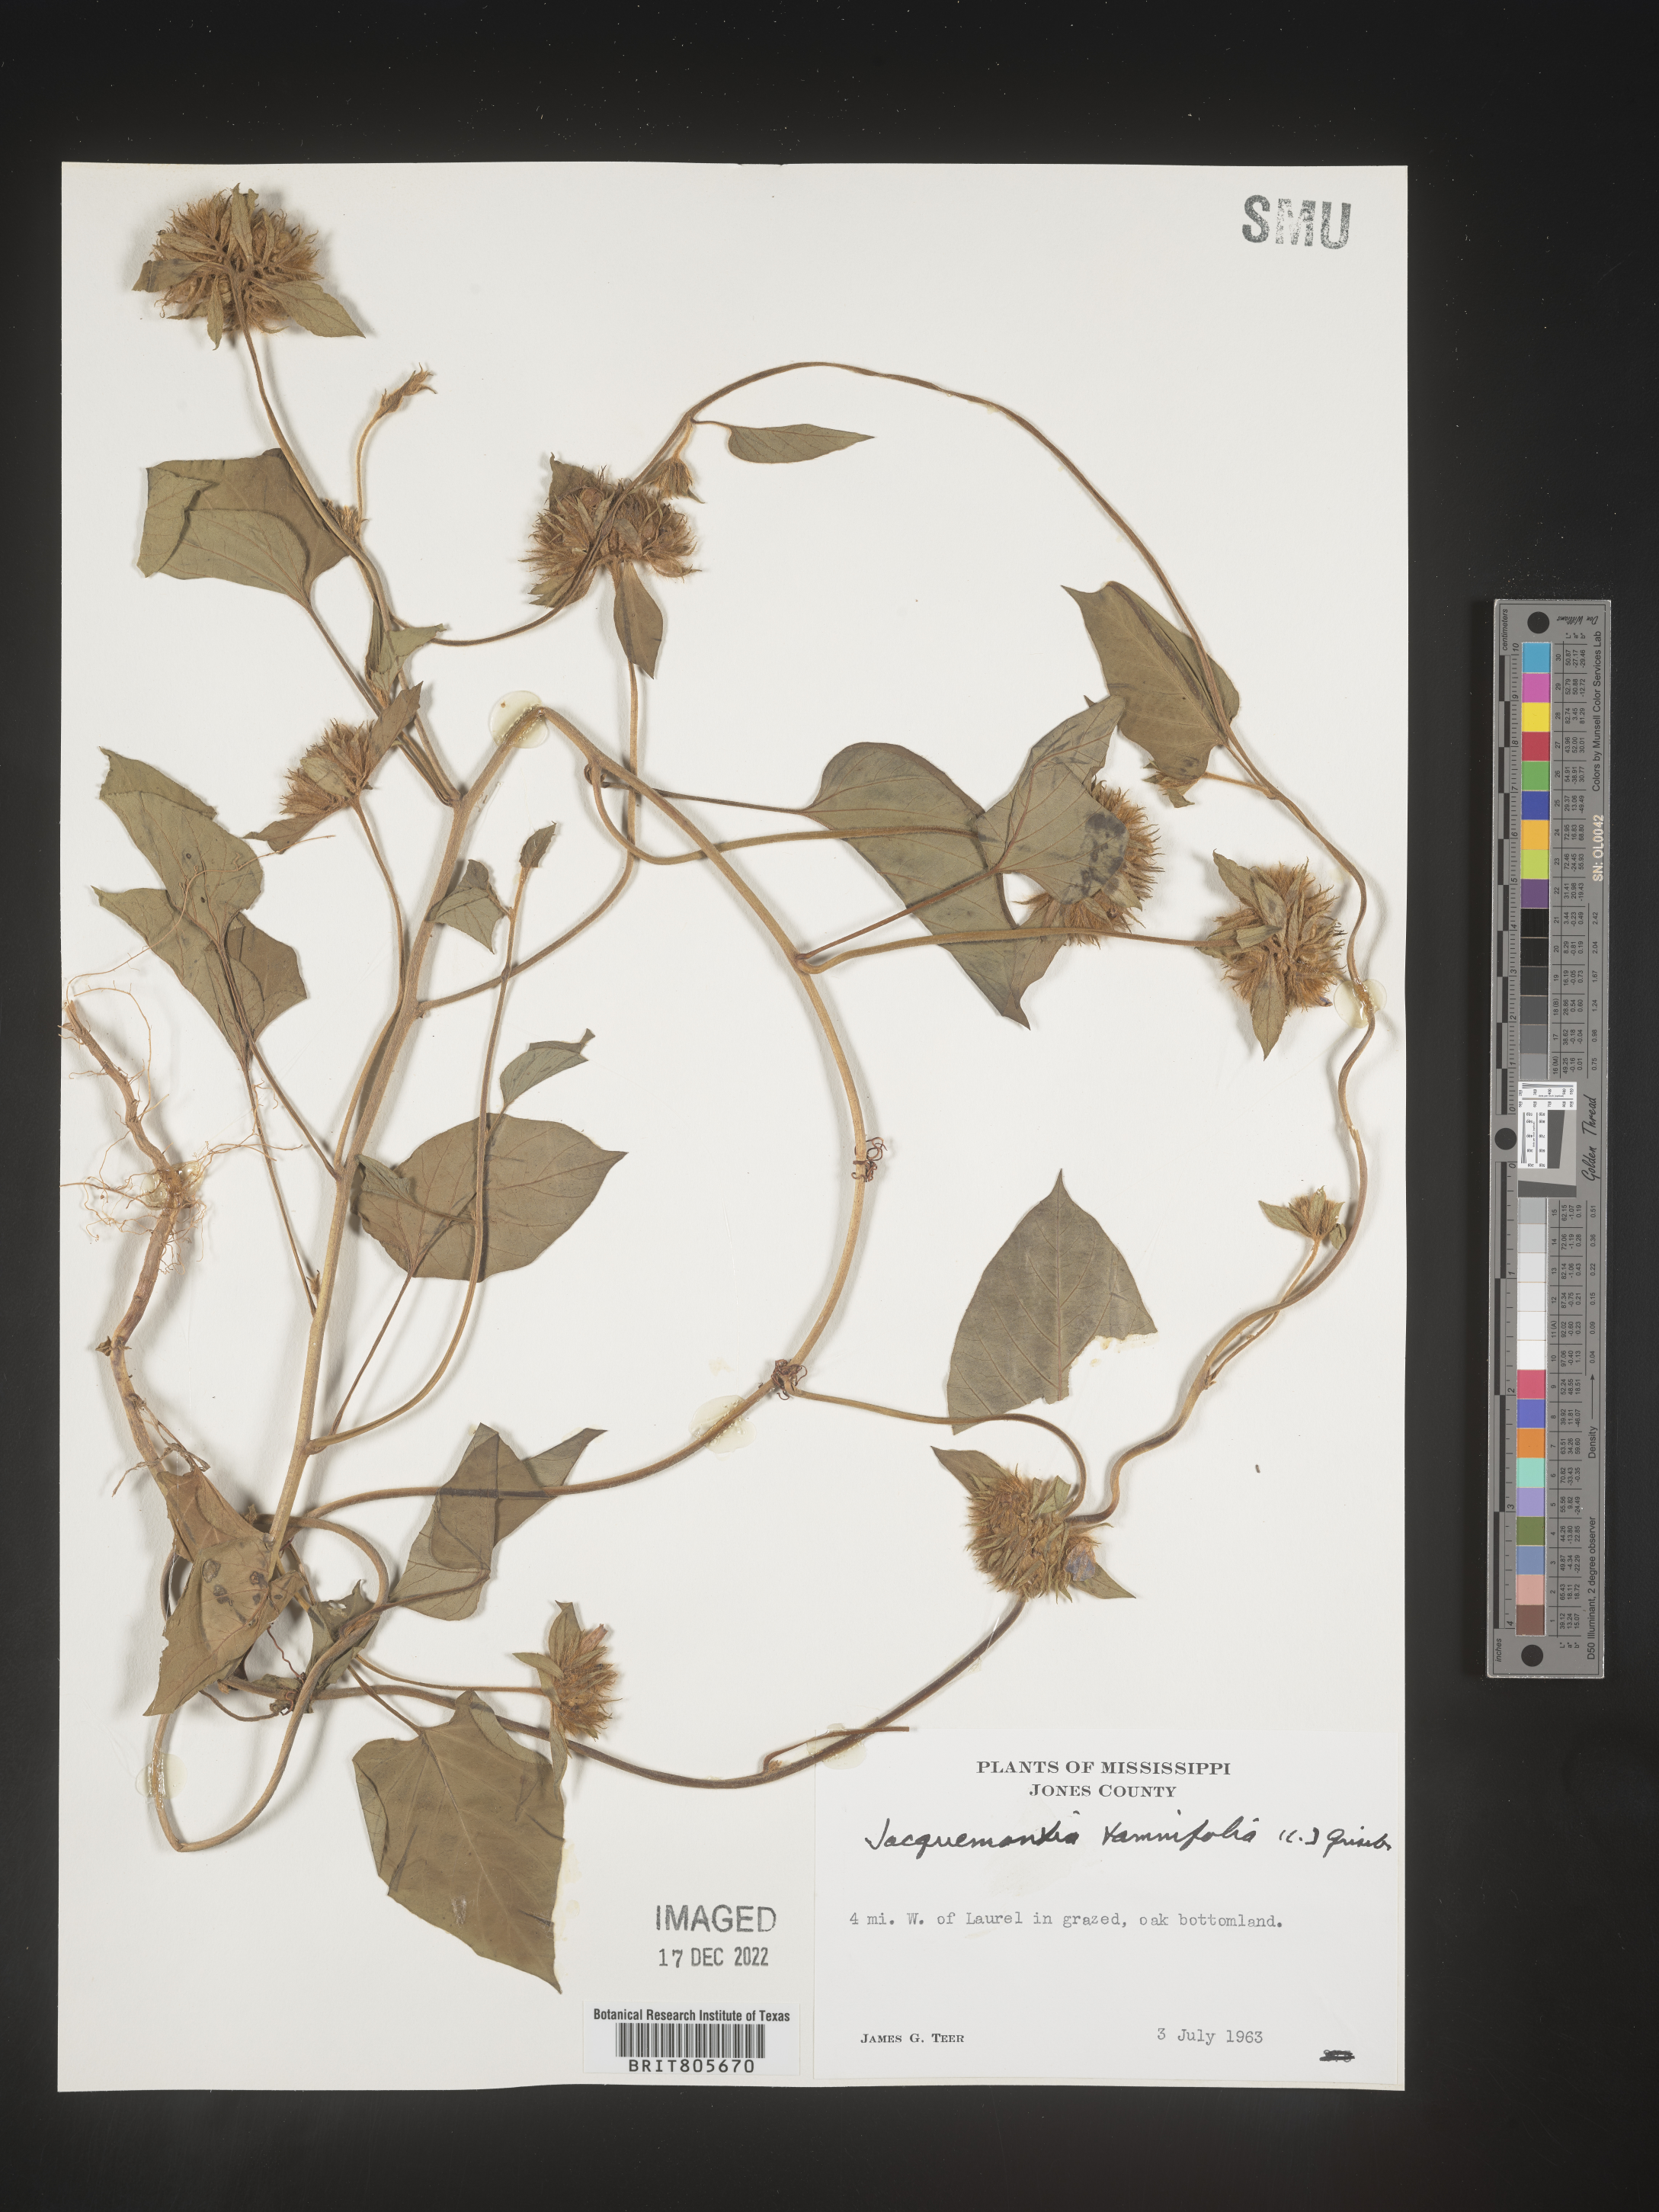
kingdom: Plantae
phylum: Tracheophyta
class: Magnoliopsida
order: Solanales
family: Convolvulaceae
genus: Jacquemontia
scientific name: Jacquemontia tamnifolia
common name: Hairy clustervine
